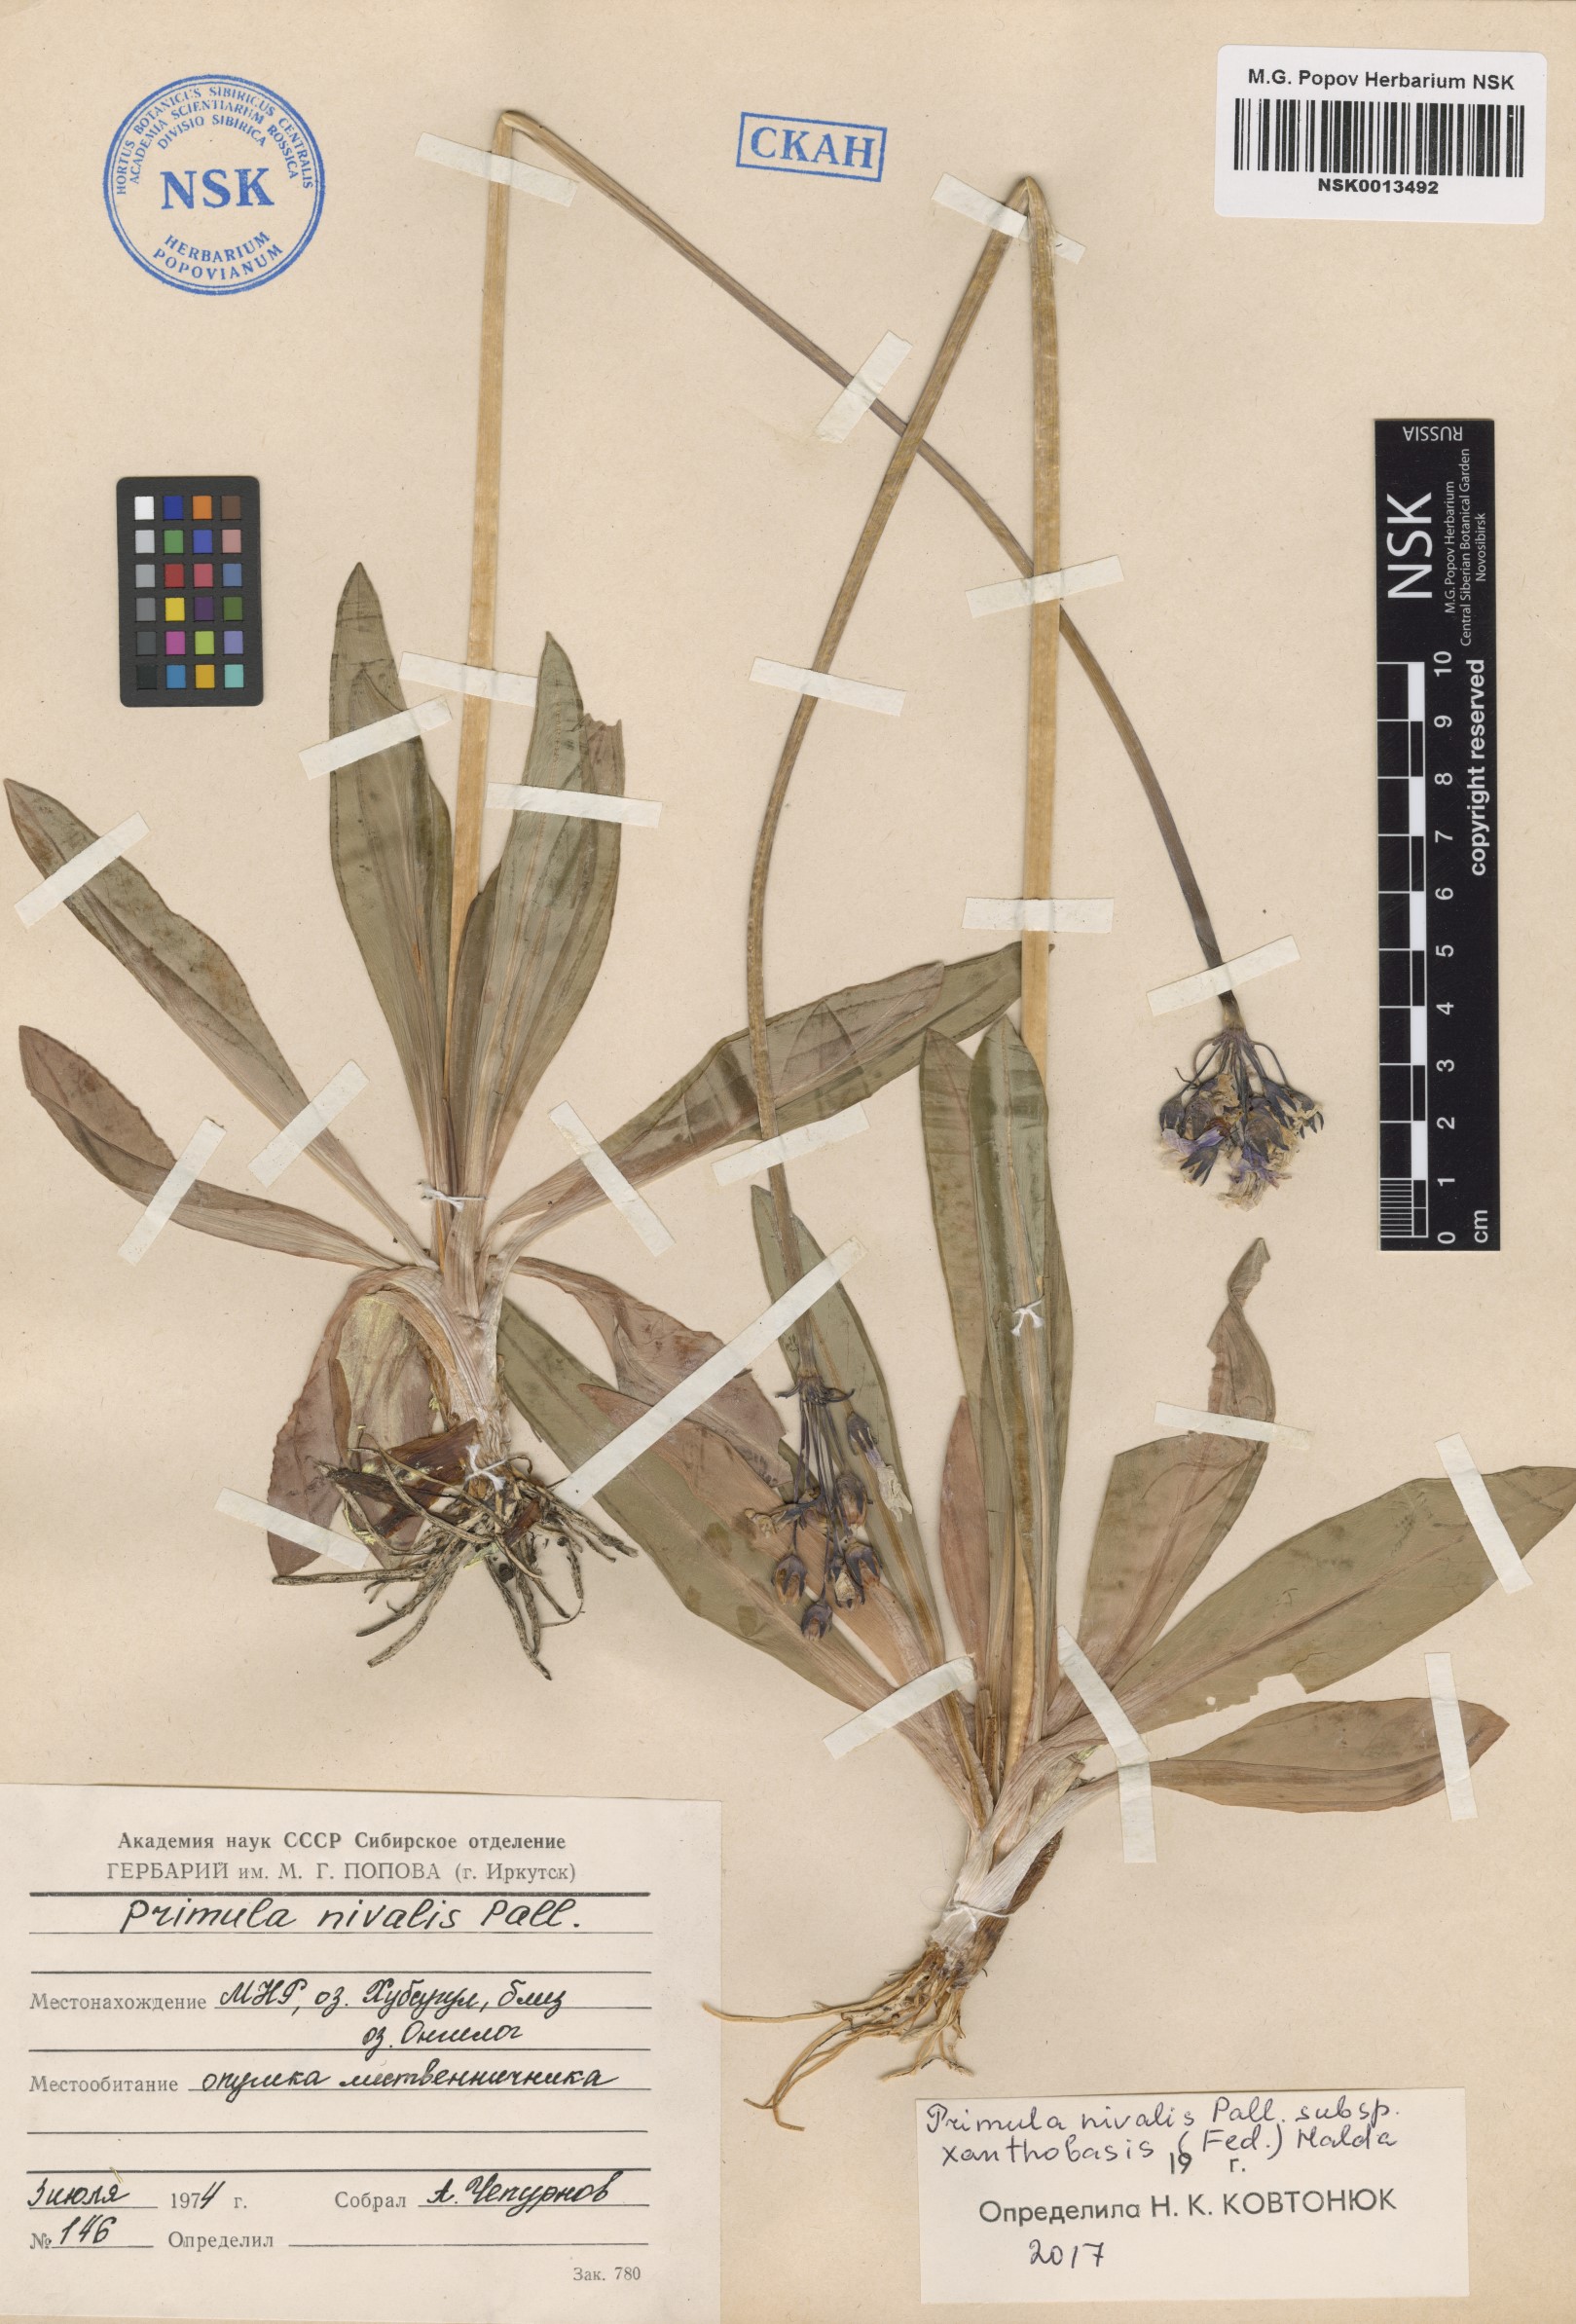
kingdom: Plantae
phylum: Tracheophyta
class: Magnoliopsida
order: Ericales
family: Primulaceae
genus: Primula
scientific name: Primula nivalis
